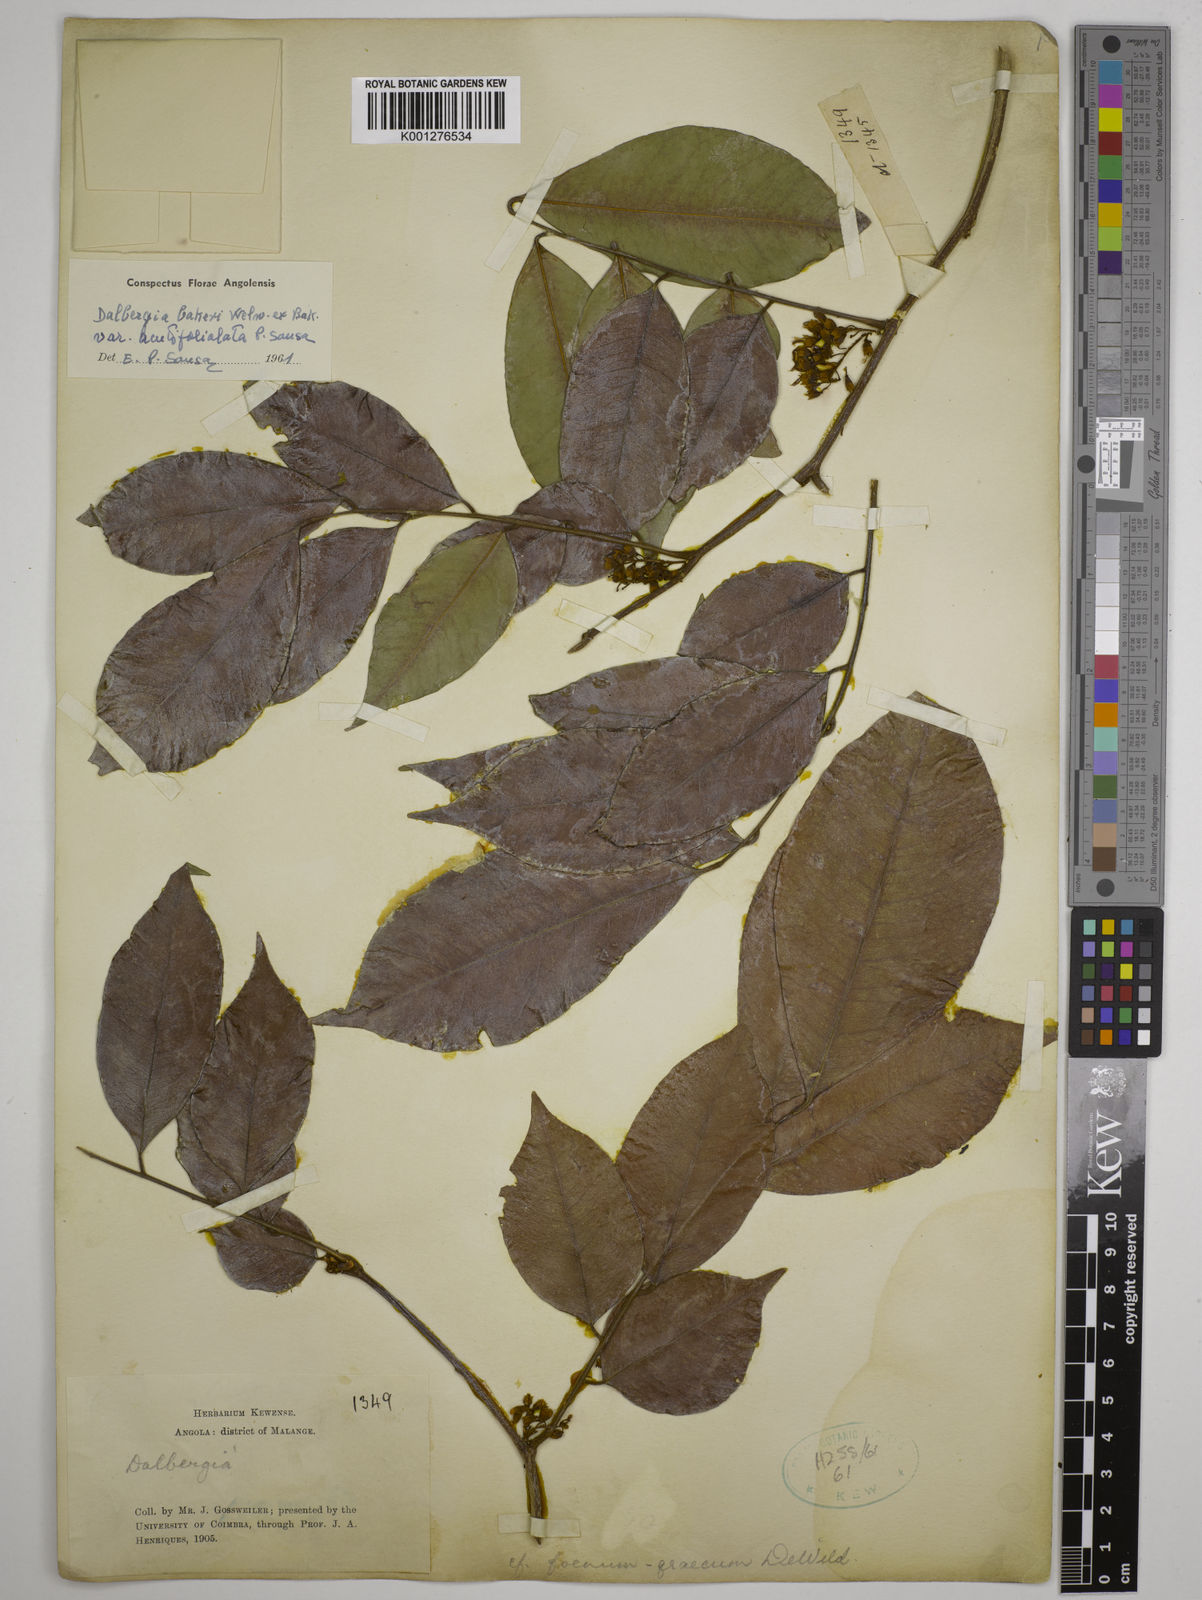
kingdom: Plantae
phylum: Tracheophyta
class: Magnoliopsida
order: Fabales
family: Fabaceae
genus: Dalbergia
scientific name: Dalbergia bakeri
